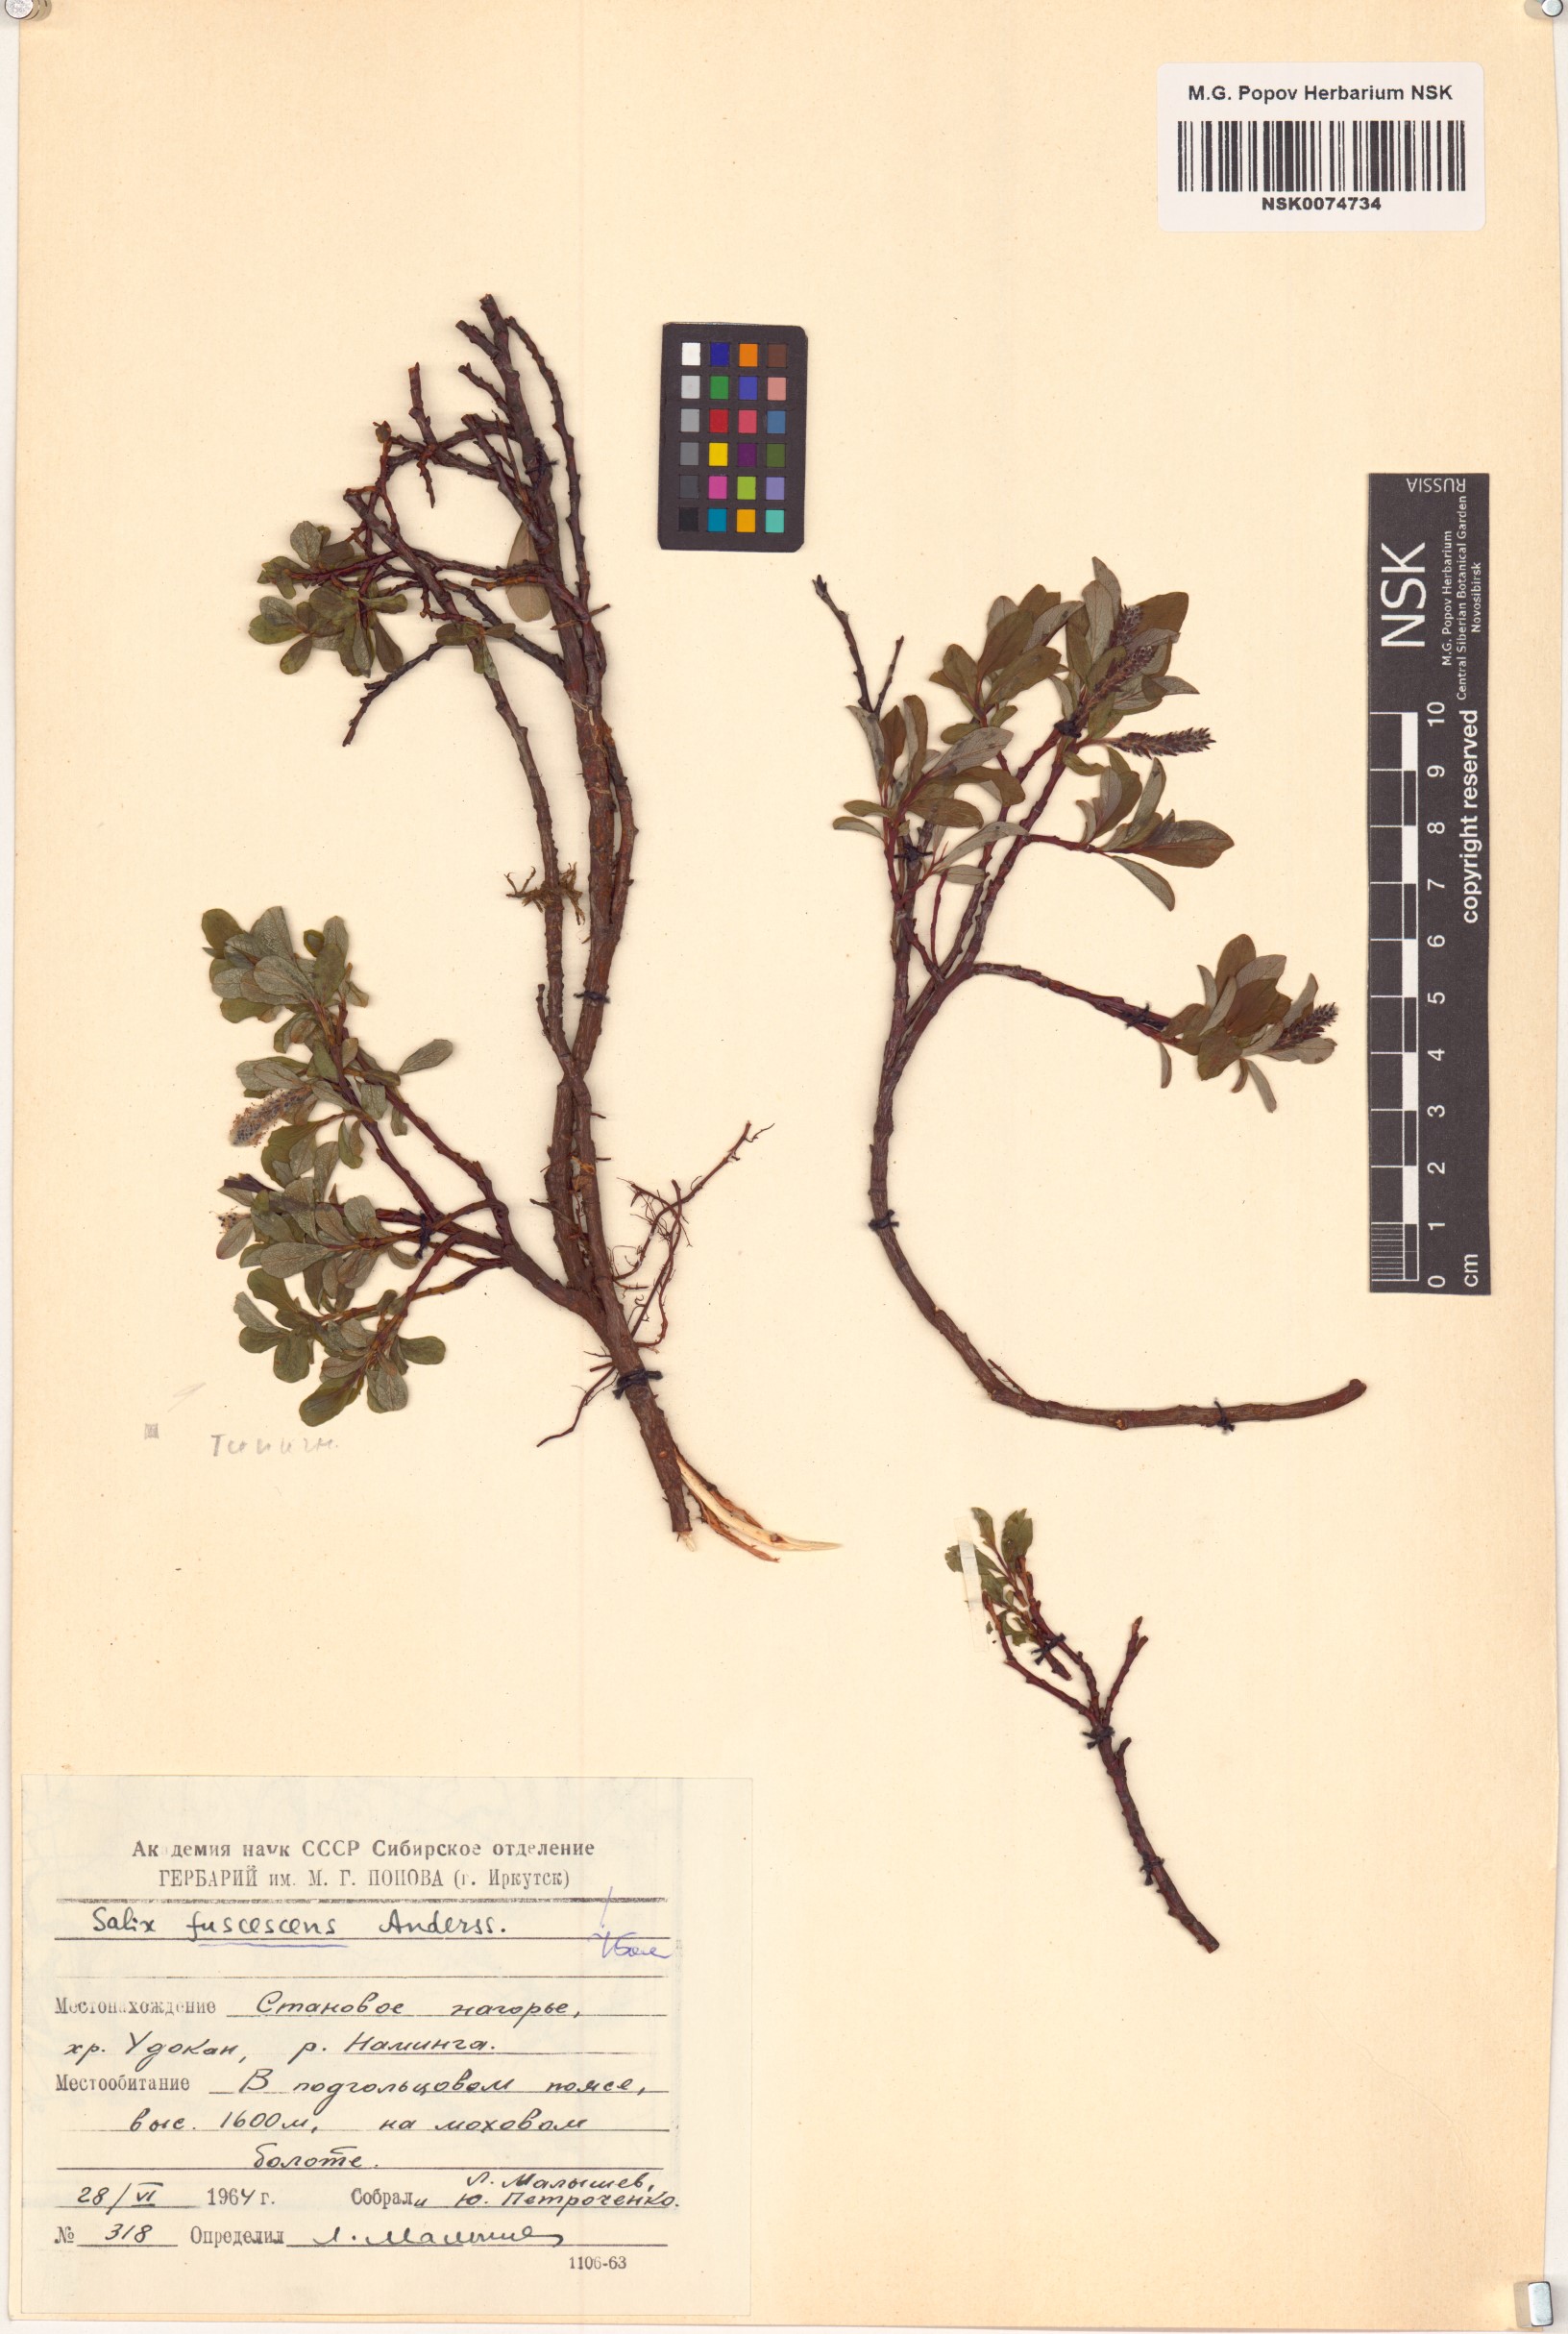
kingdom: Plantae
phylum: Tracheophyta
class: Magnoliopsida
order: Malpighiales
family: Salicaceae
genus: Salix
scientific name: Salix fuscescens
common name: Brownish willow
